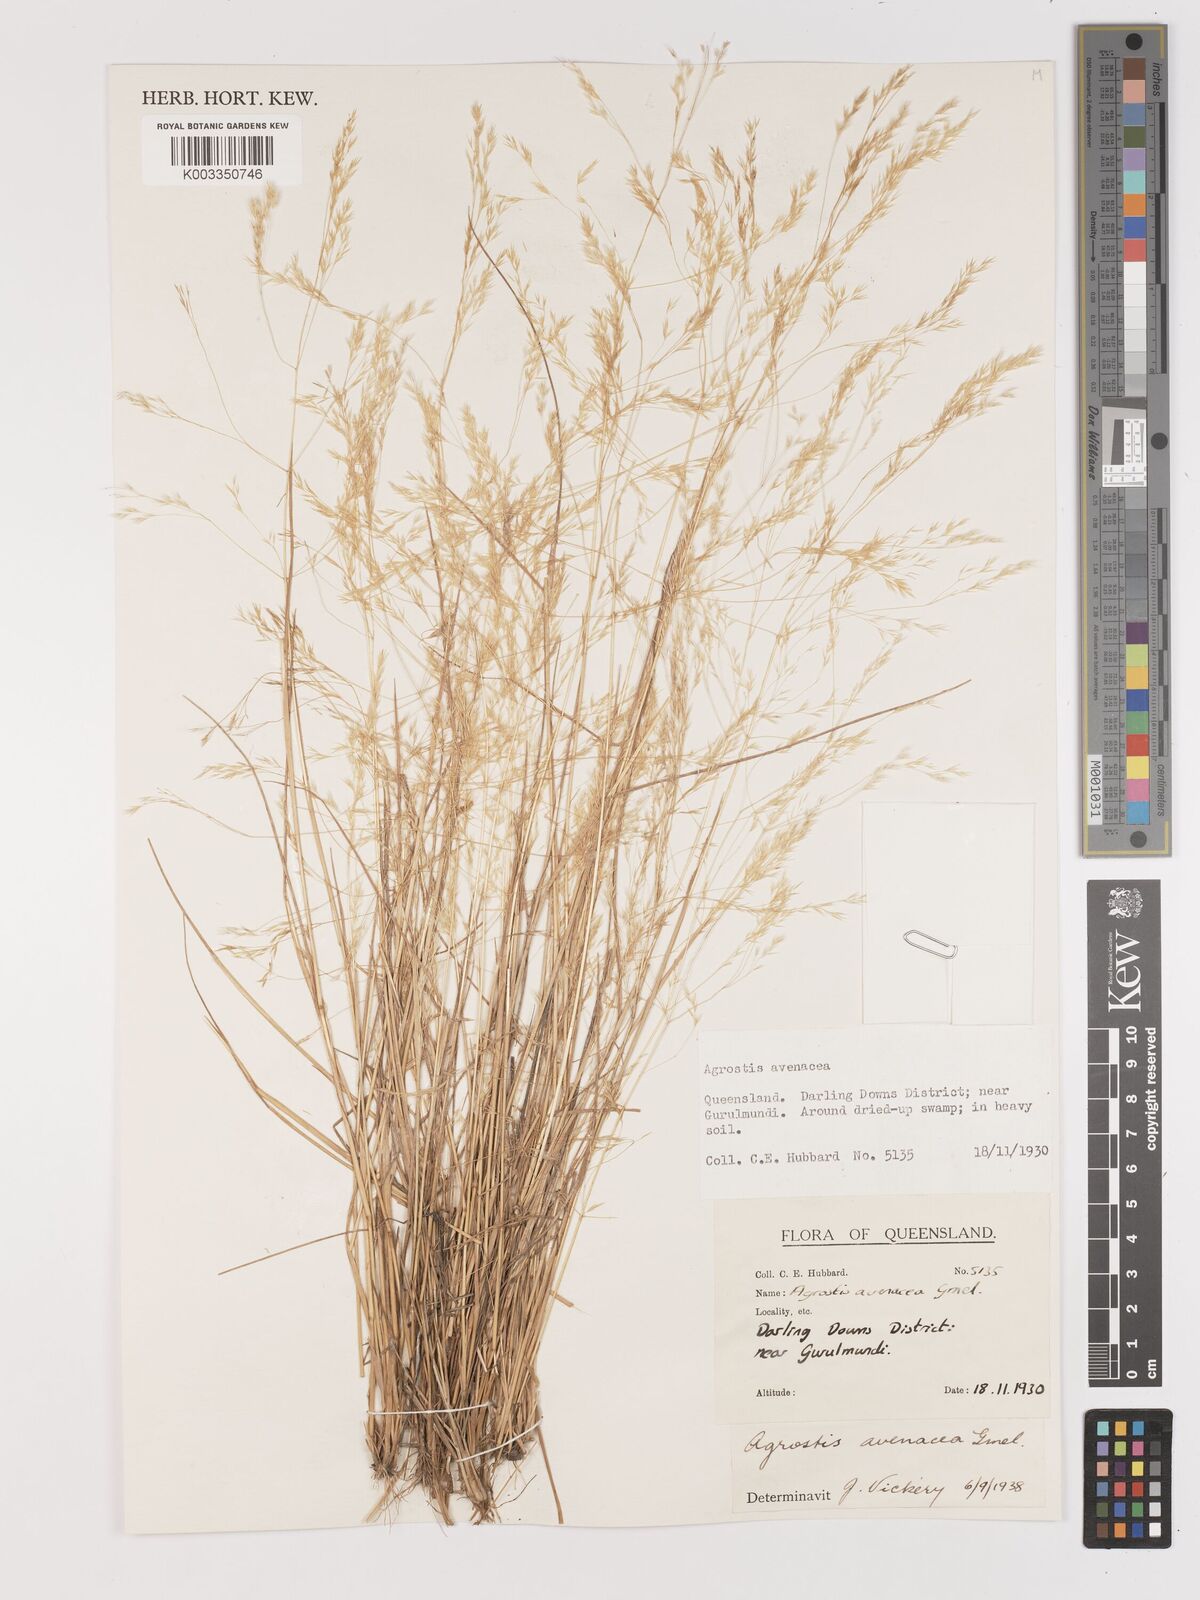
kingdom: Plantae
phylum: Tracheophyta
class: Liliopsida
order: Poales
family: Poaceae
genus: Lachnagrostis
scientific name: Lachnagrostis filiformis
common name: Bentgrass
